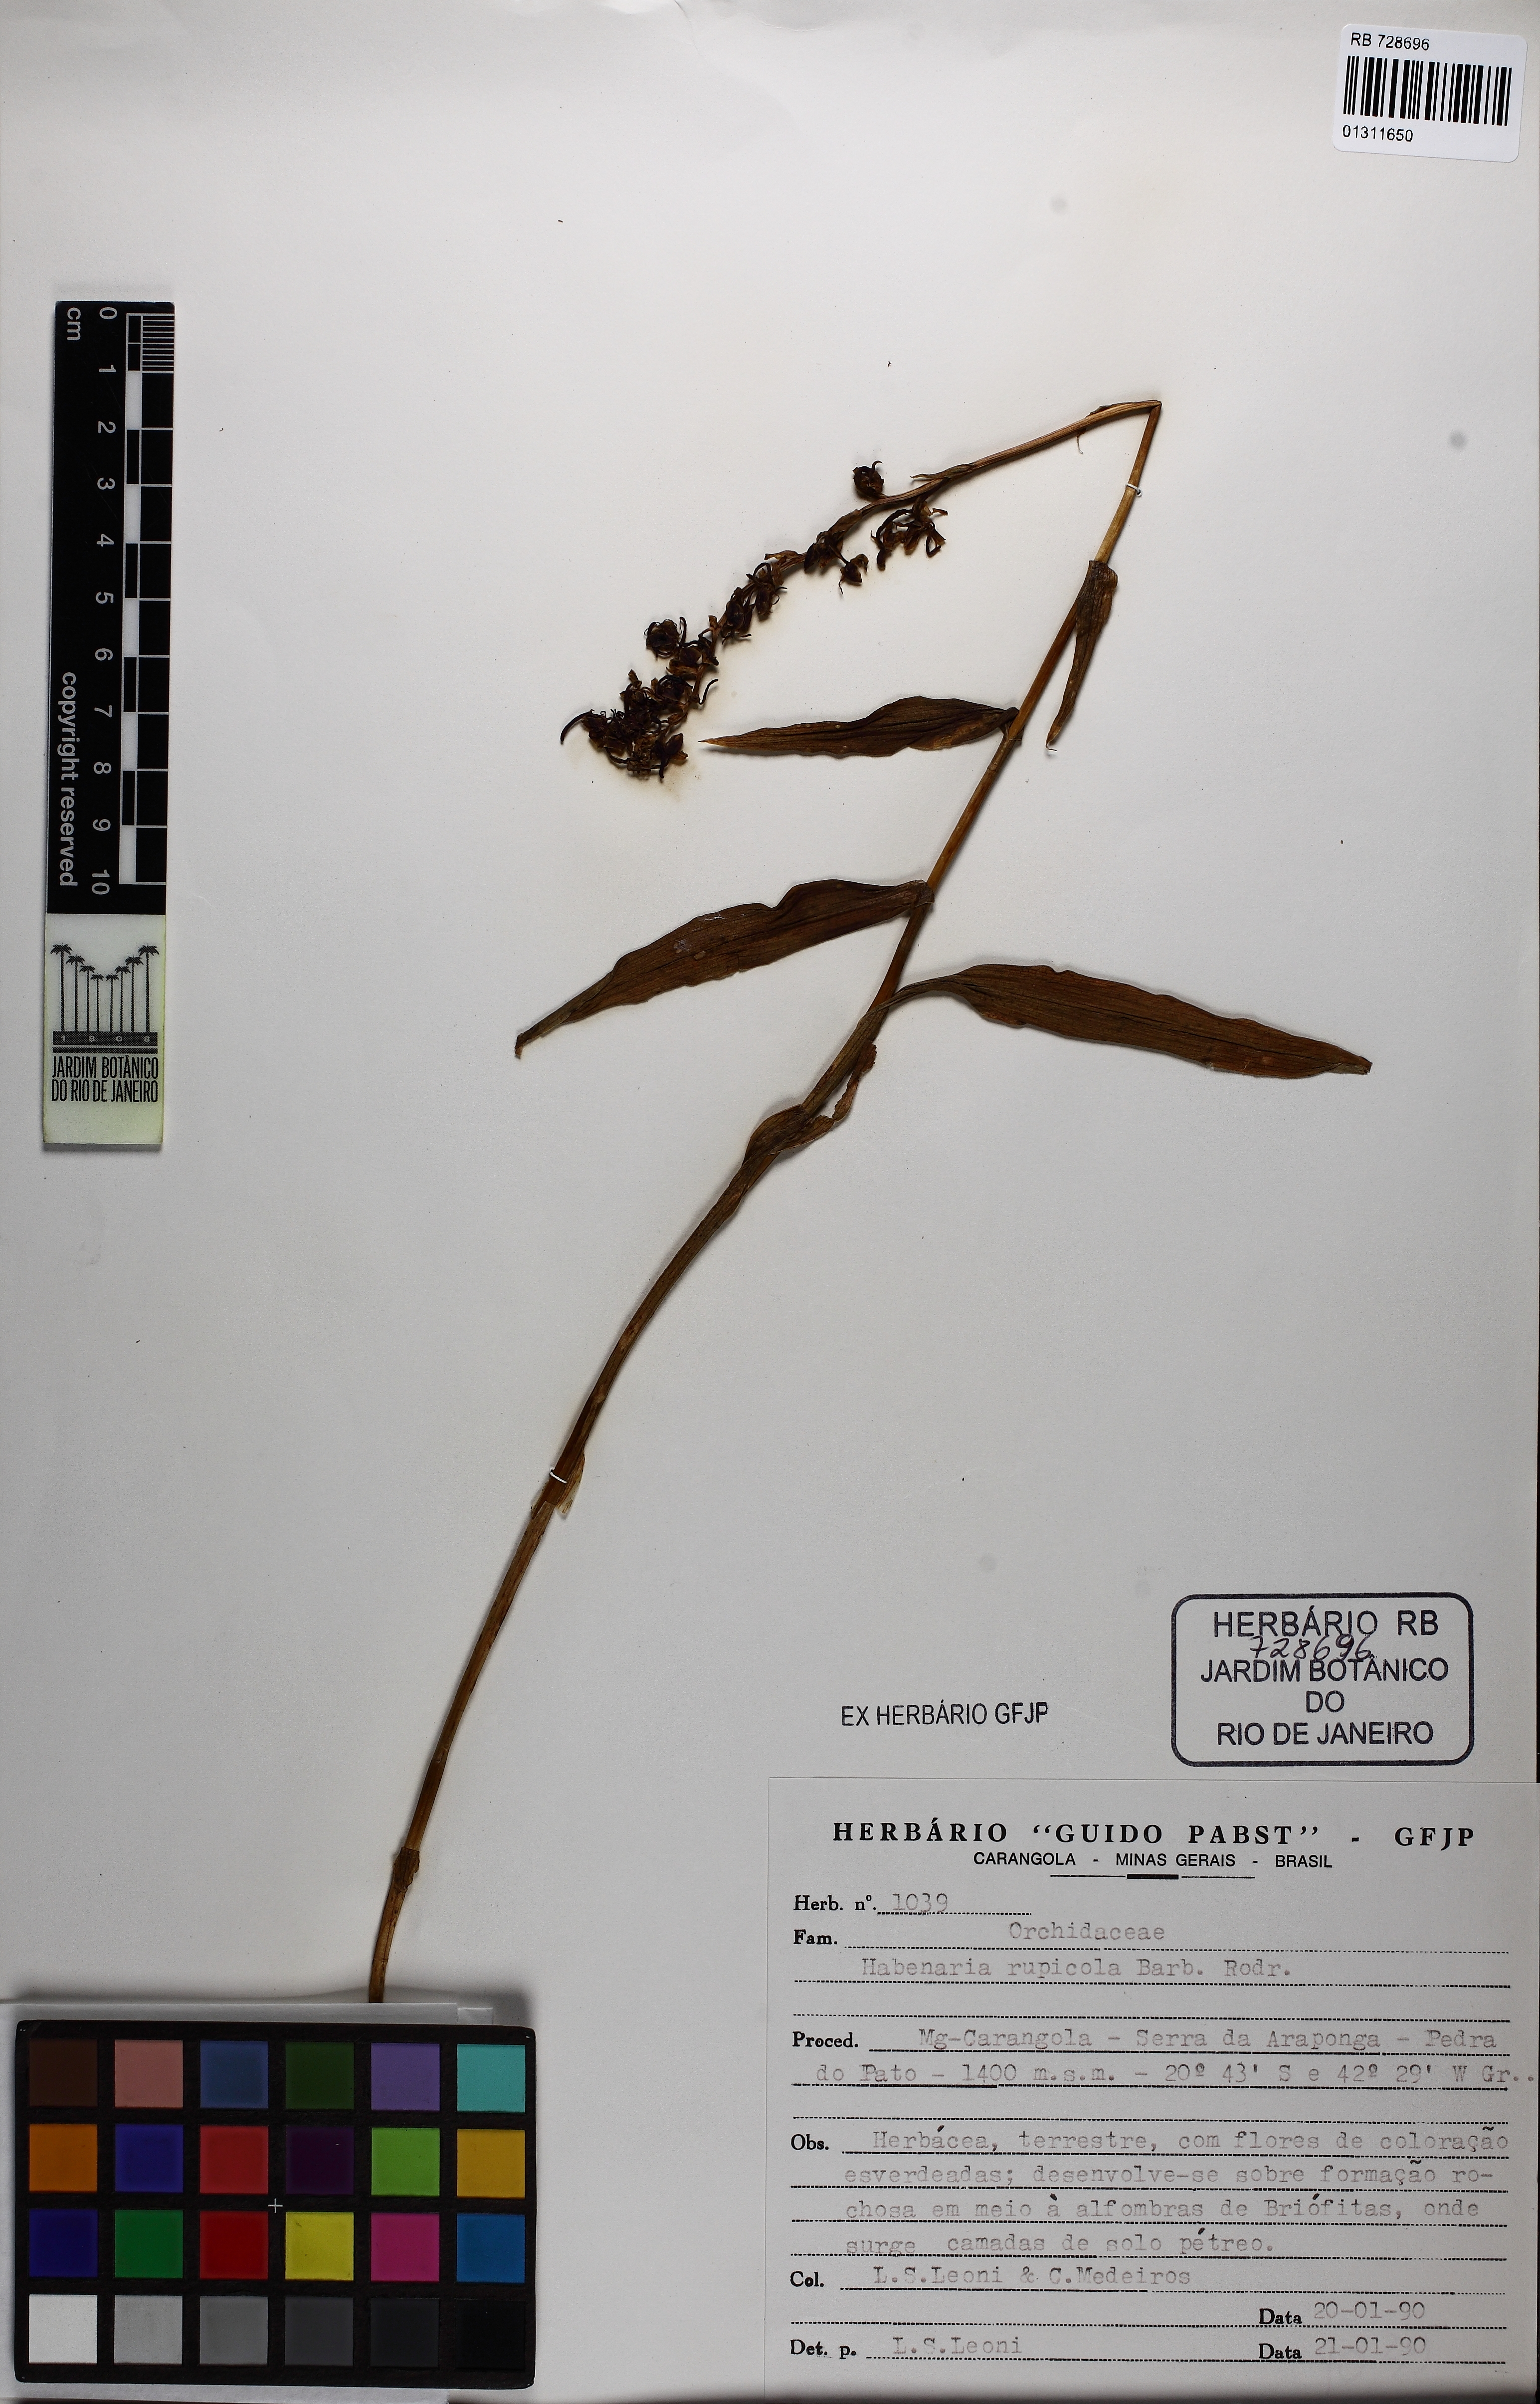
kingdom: Plantae
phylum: Tracheophyta
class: Liliopsida
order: Asparagales
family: Orchidaceae
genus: Habenaria
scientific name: Habenaria rupicola
